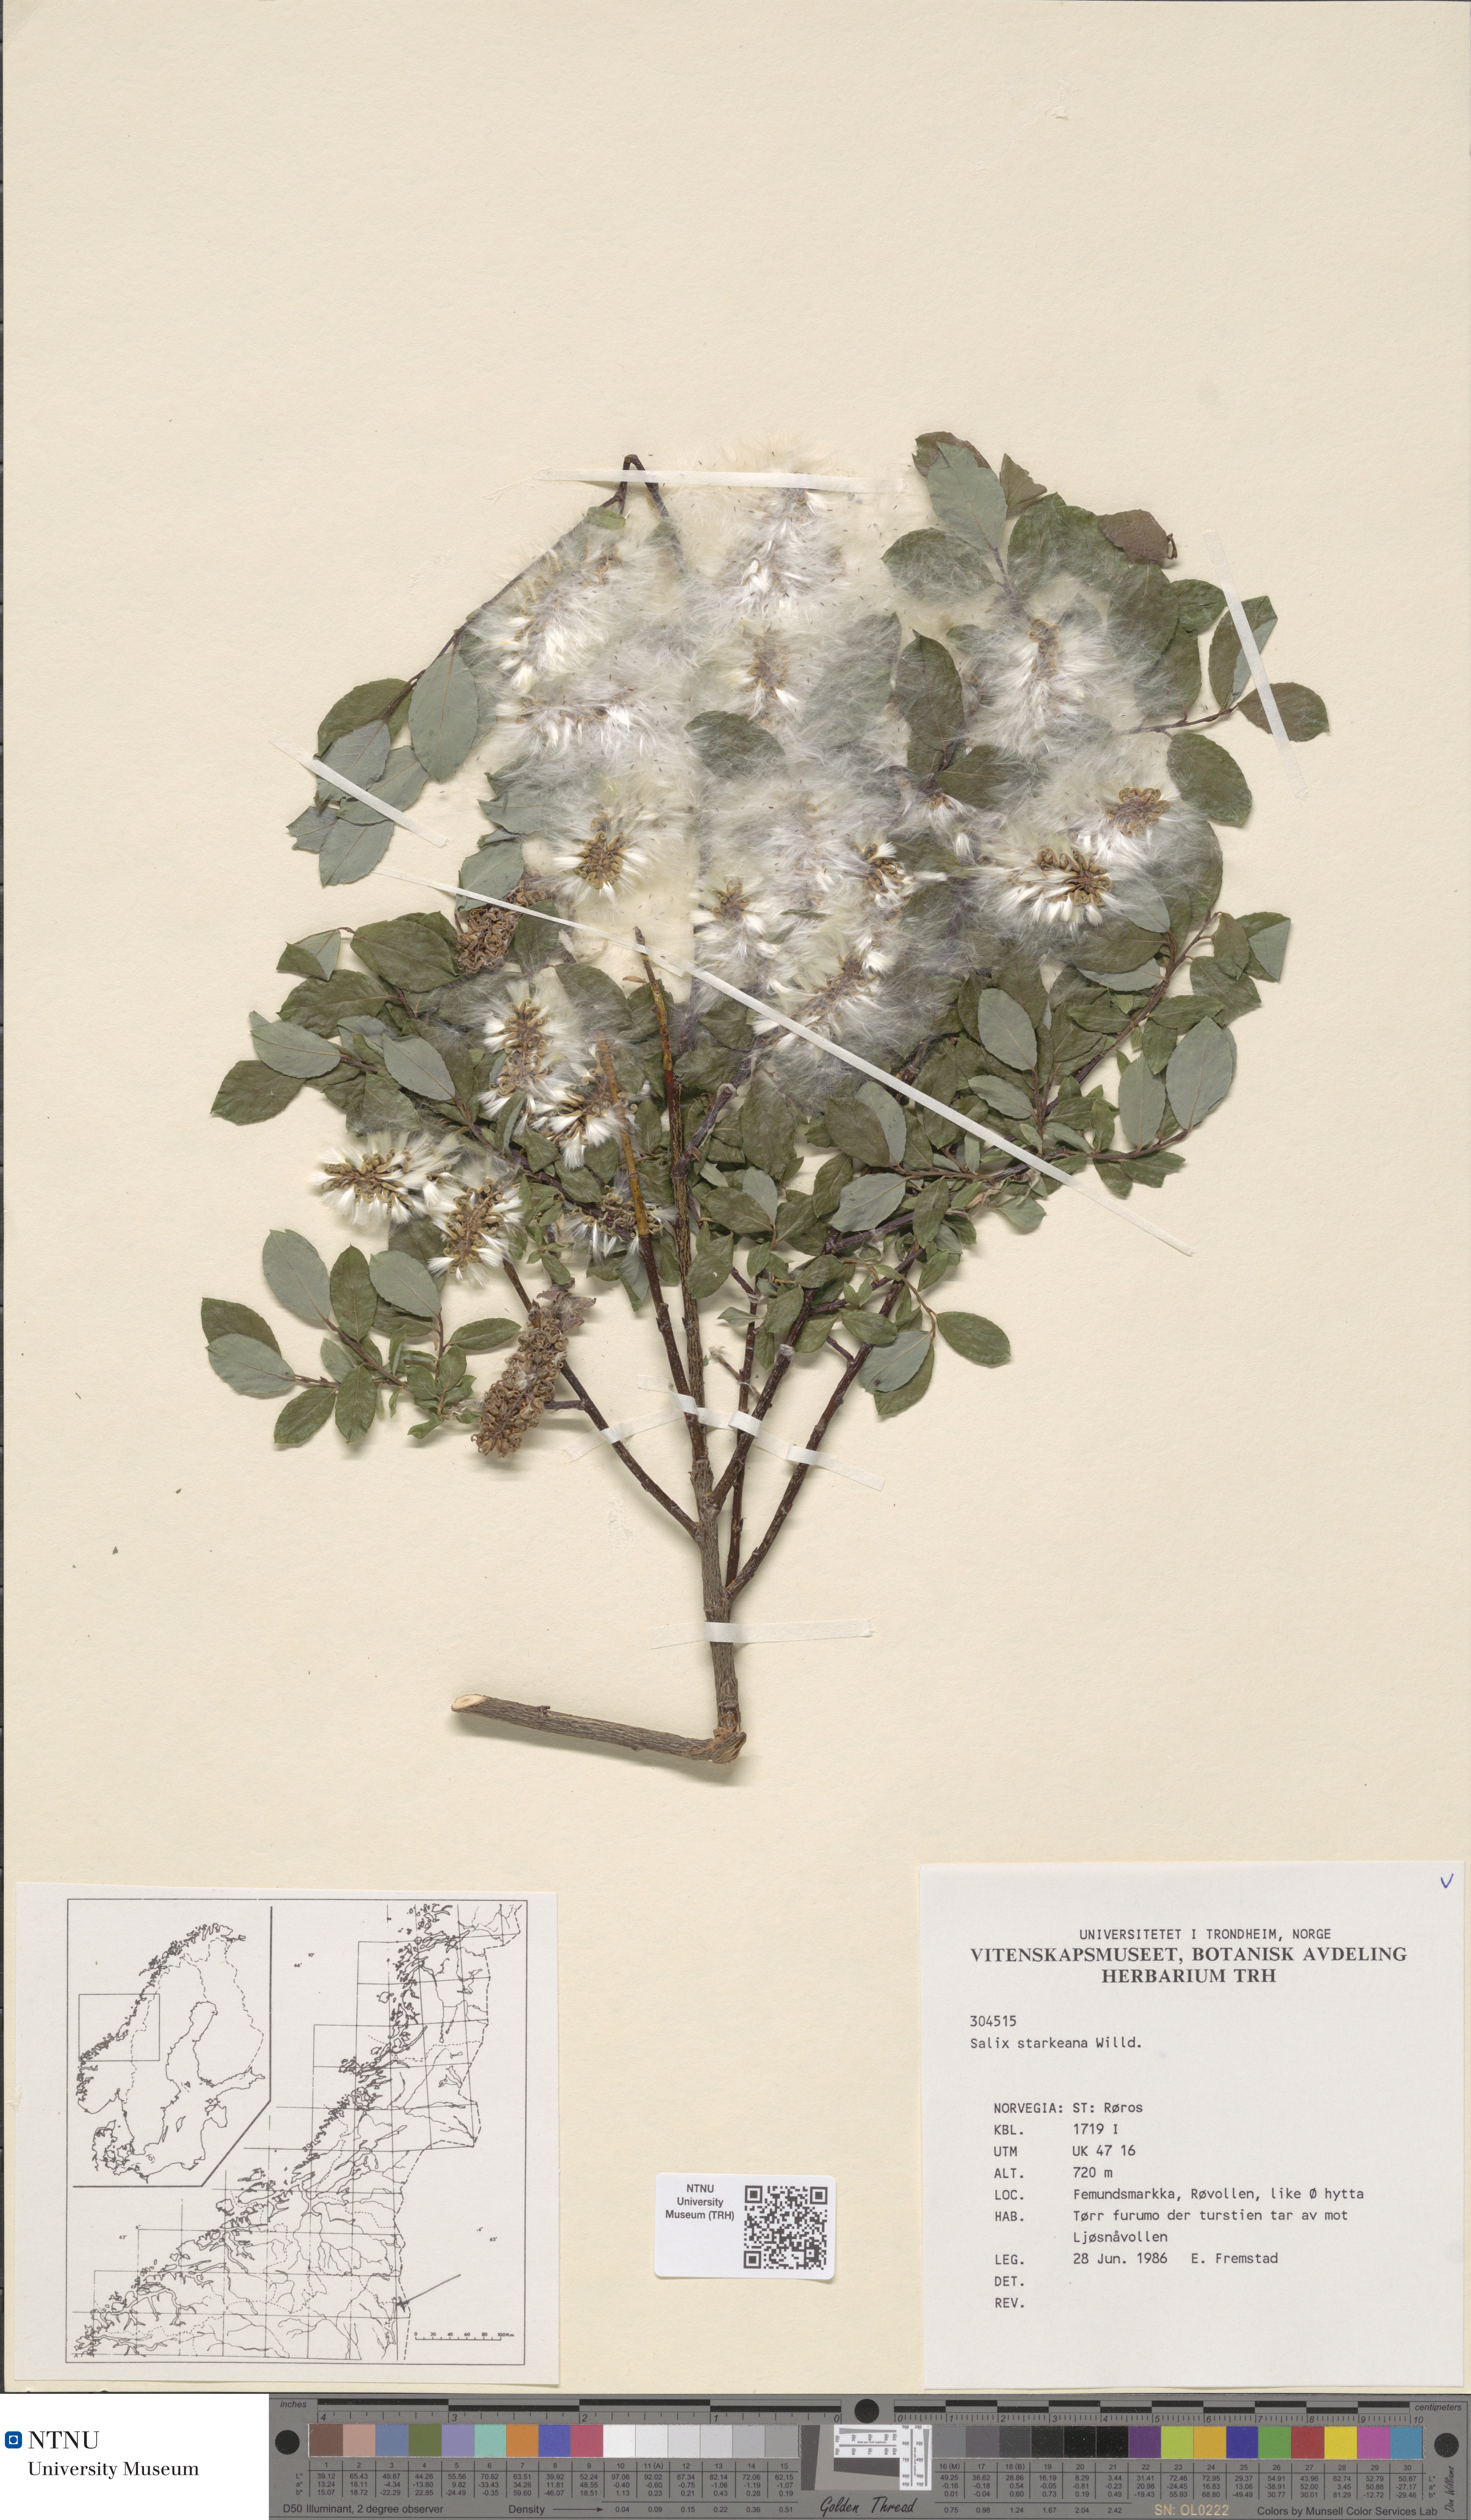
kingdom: Plantae
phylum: Tracheophyta
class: Magnoliopsida
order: Malpighiales
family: Salicaceae
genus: Salix
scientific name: Salix starkeana
